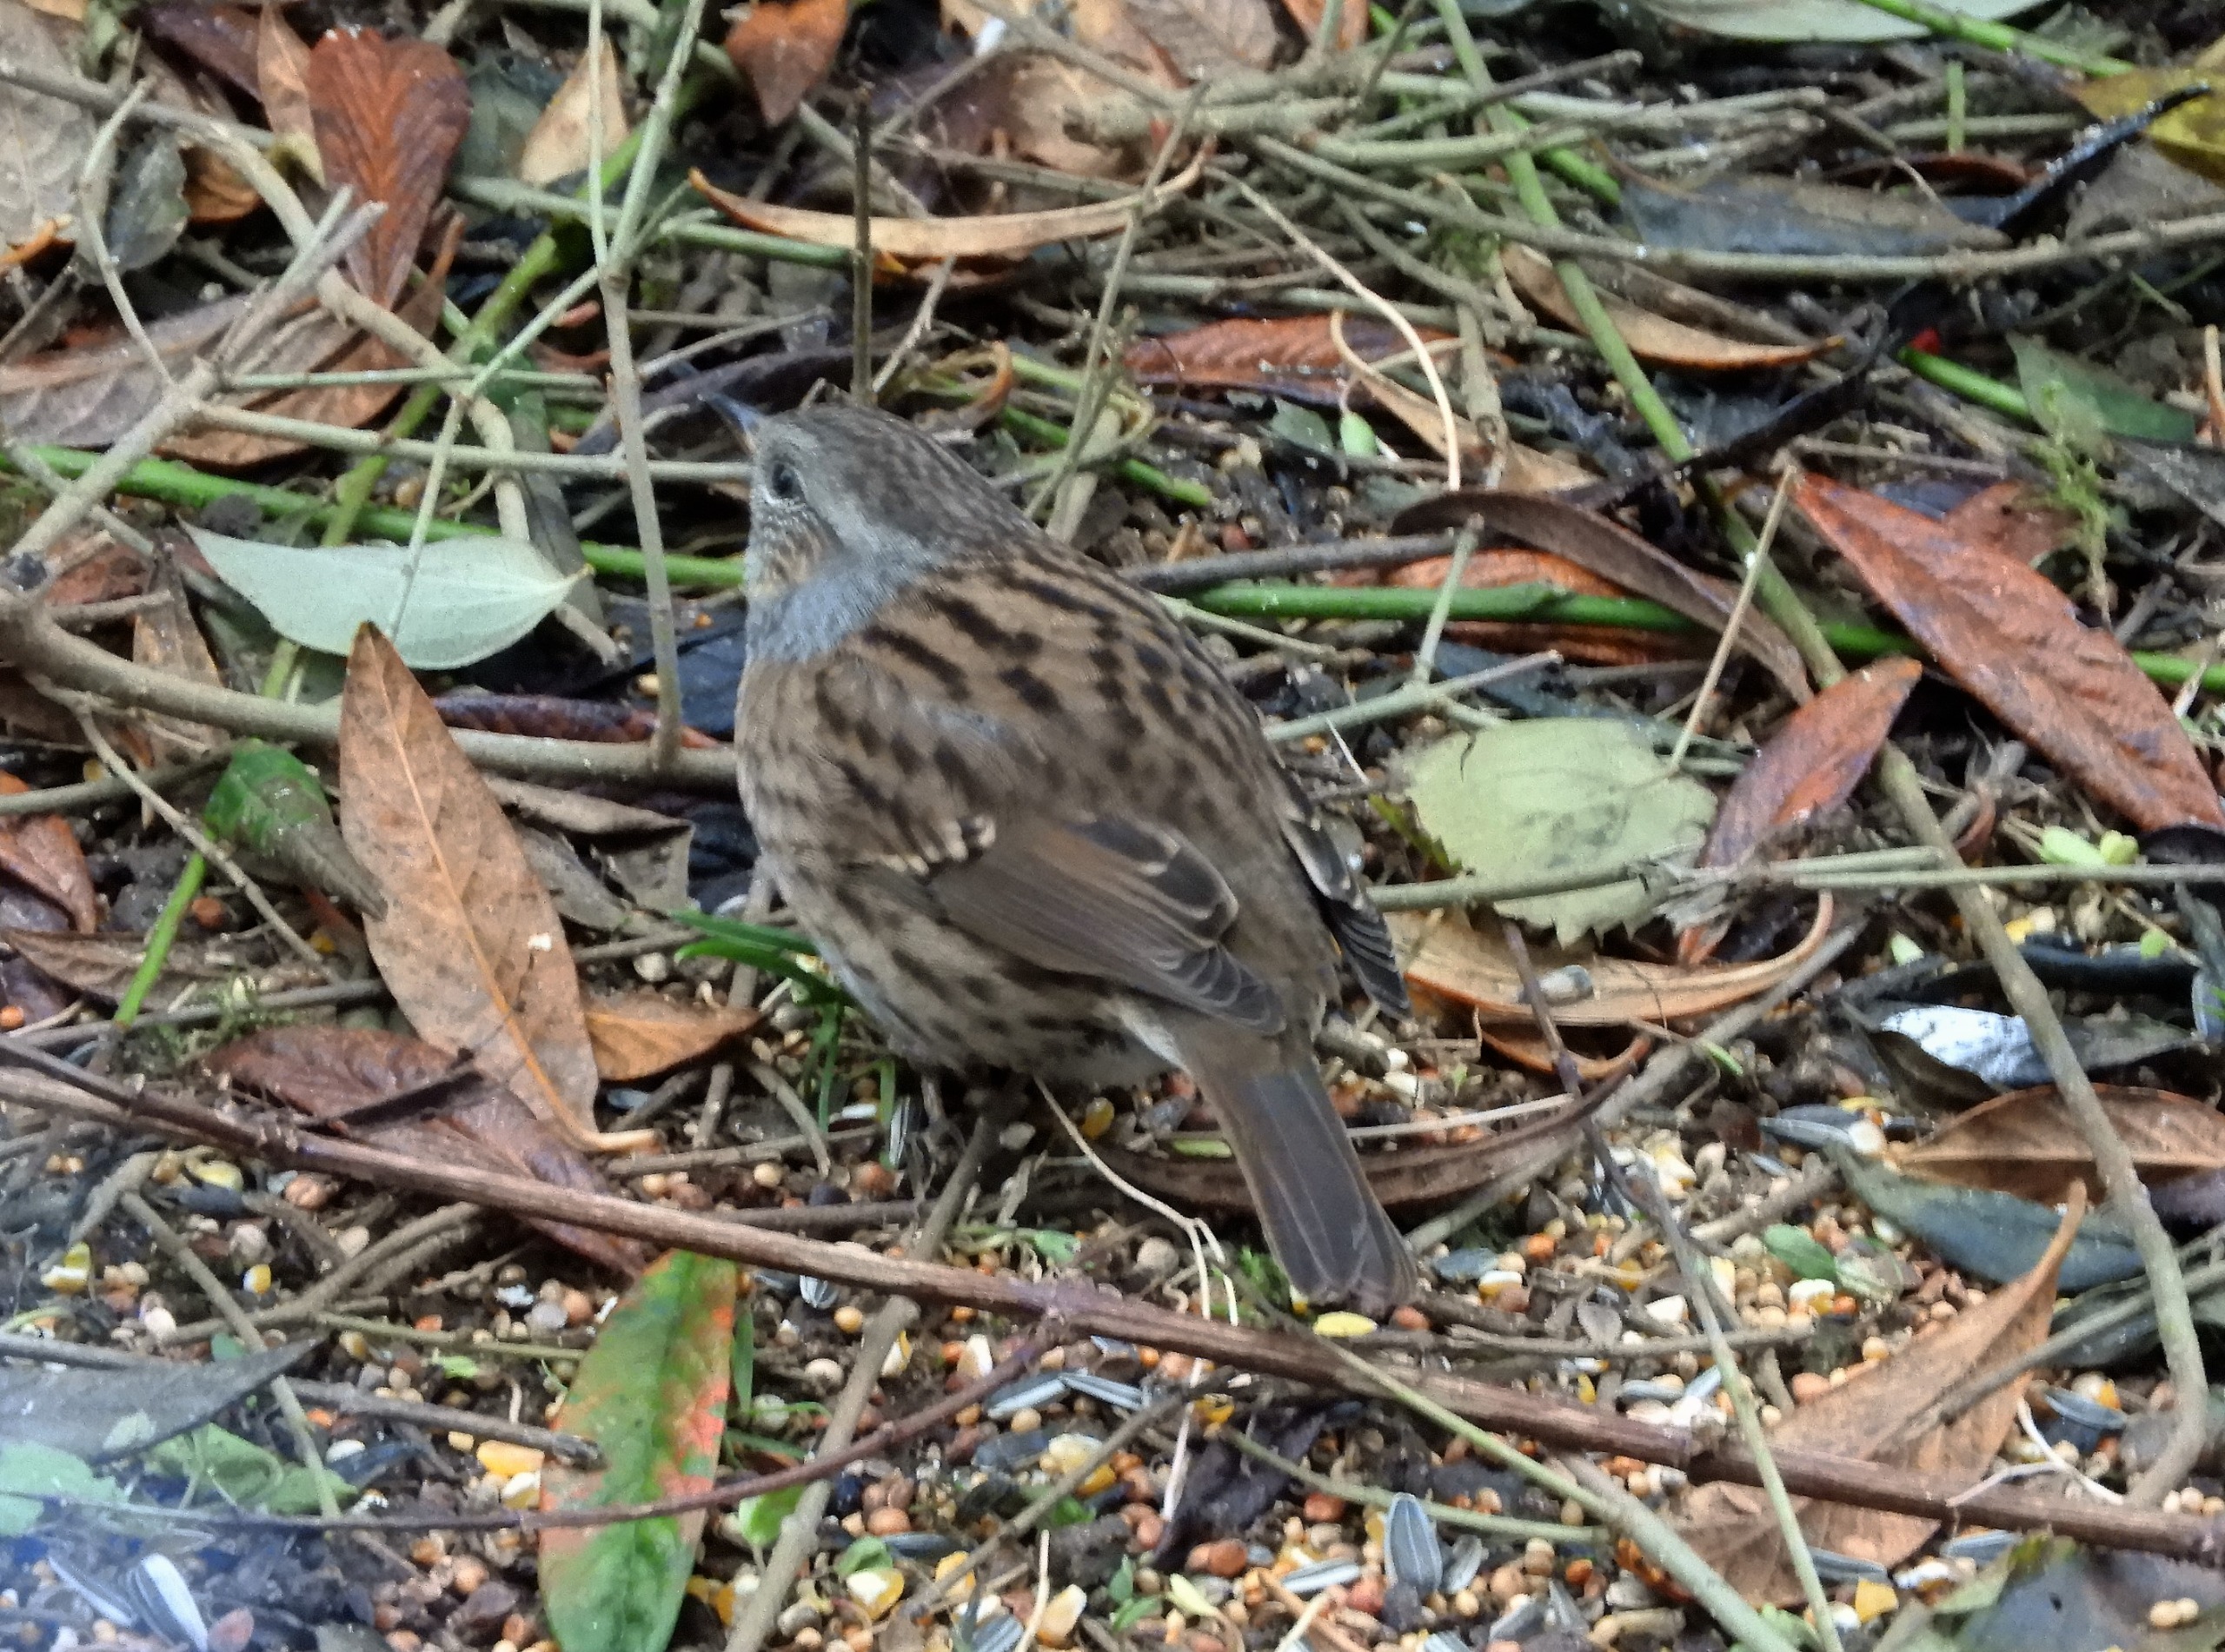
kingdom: Animalia
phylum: Chordata
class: Aves
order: Passeriformes
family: Prunellidae
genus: Prunella
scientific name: Prunella modularis
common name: Jernspurv
